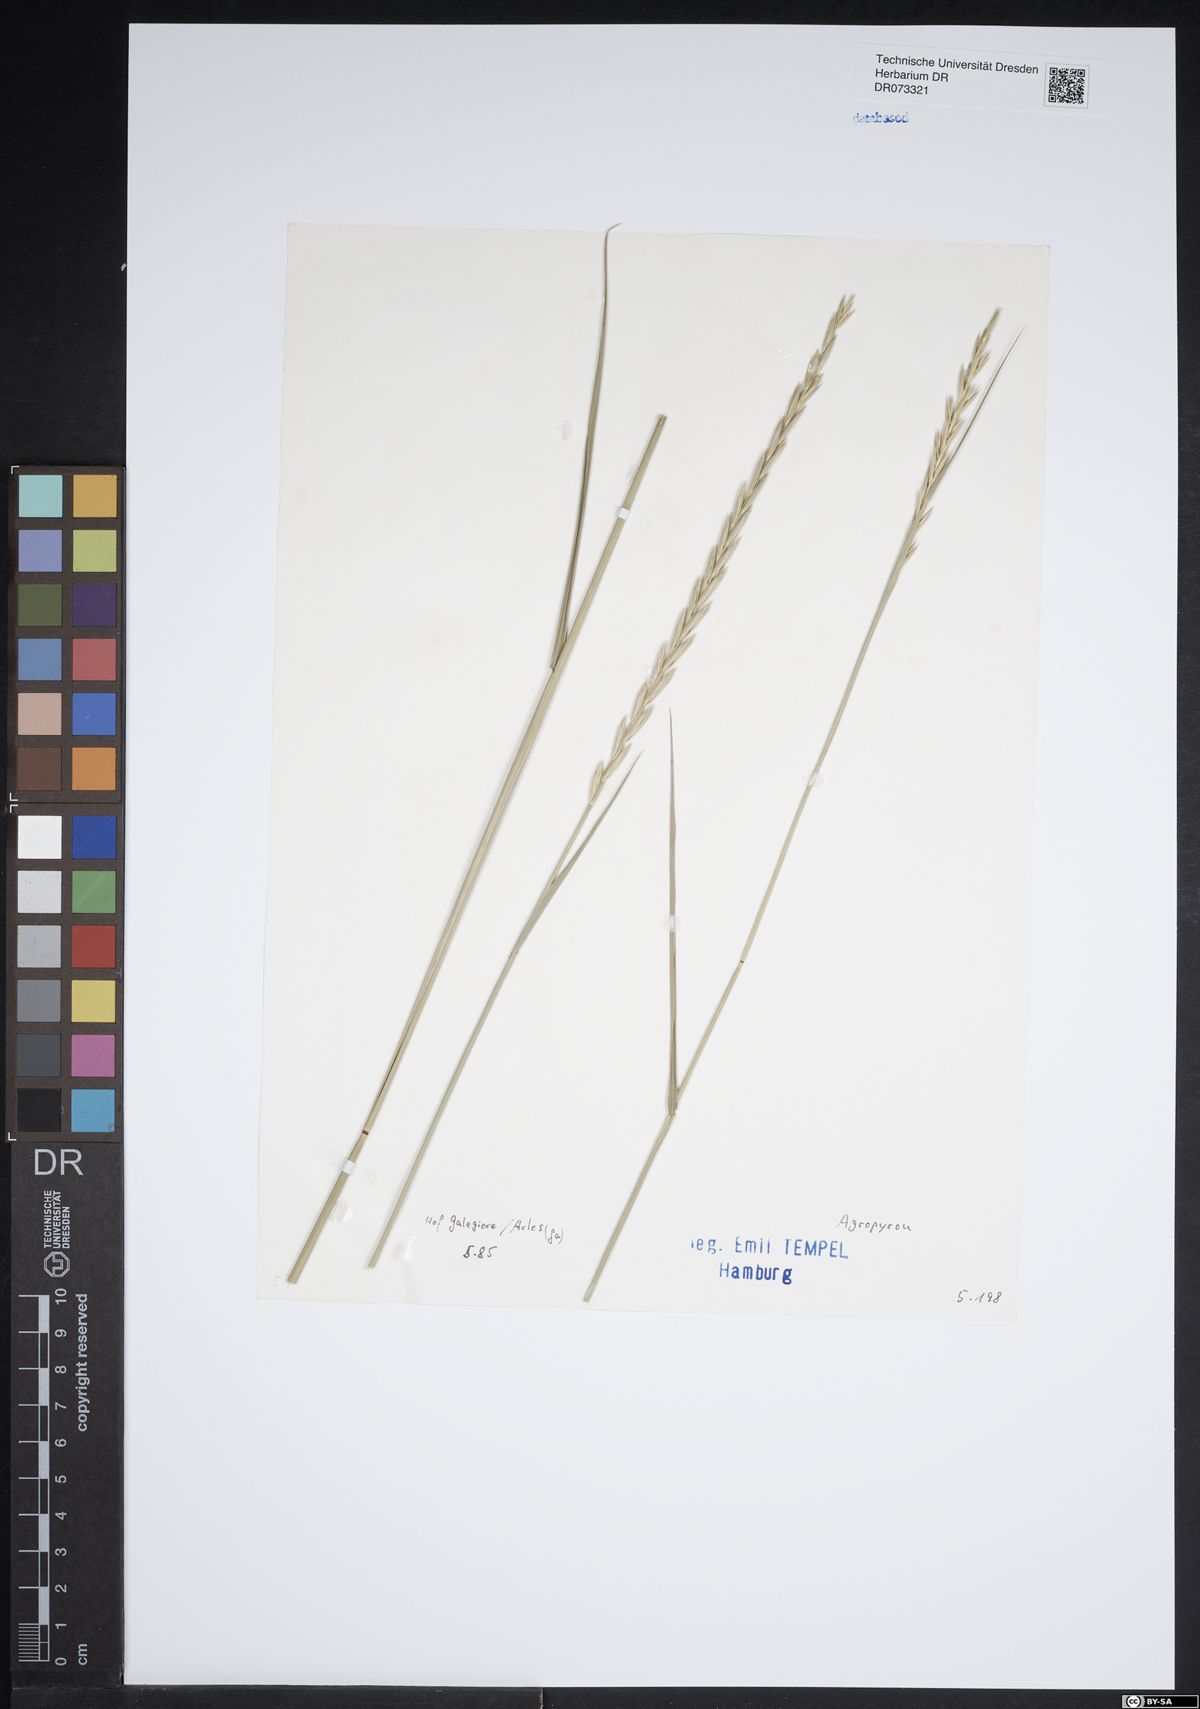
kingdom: Plantae
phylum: Tracheophyta
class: Liliopsida
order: Poales
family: Poaceae
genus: Agropyron
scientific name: Agropyron
